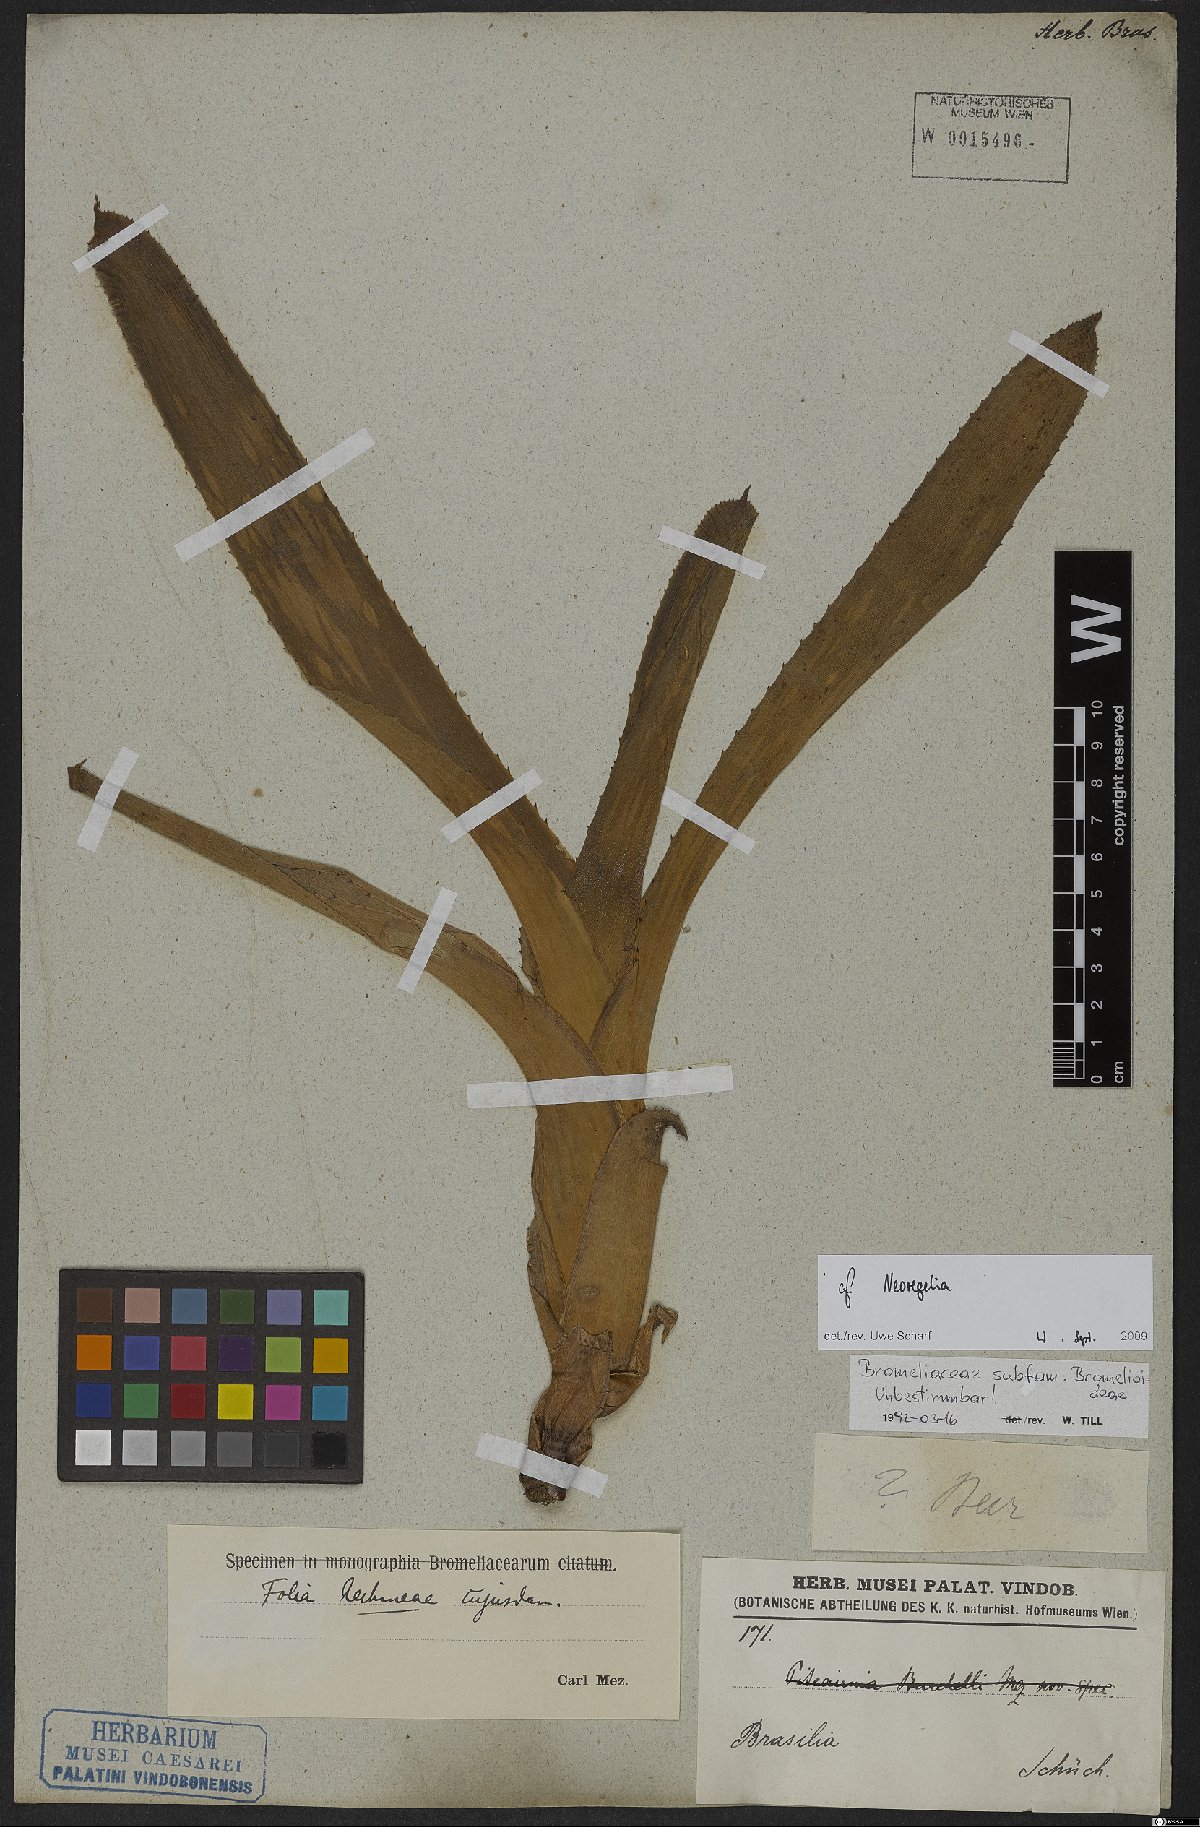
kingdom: Plantae
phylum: Tracheophyta
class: Liliopsida
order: Poales
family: Bromeliaceae
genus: Neoregelia
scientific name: Neoregelia
